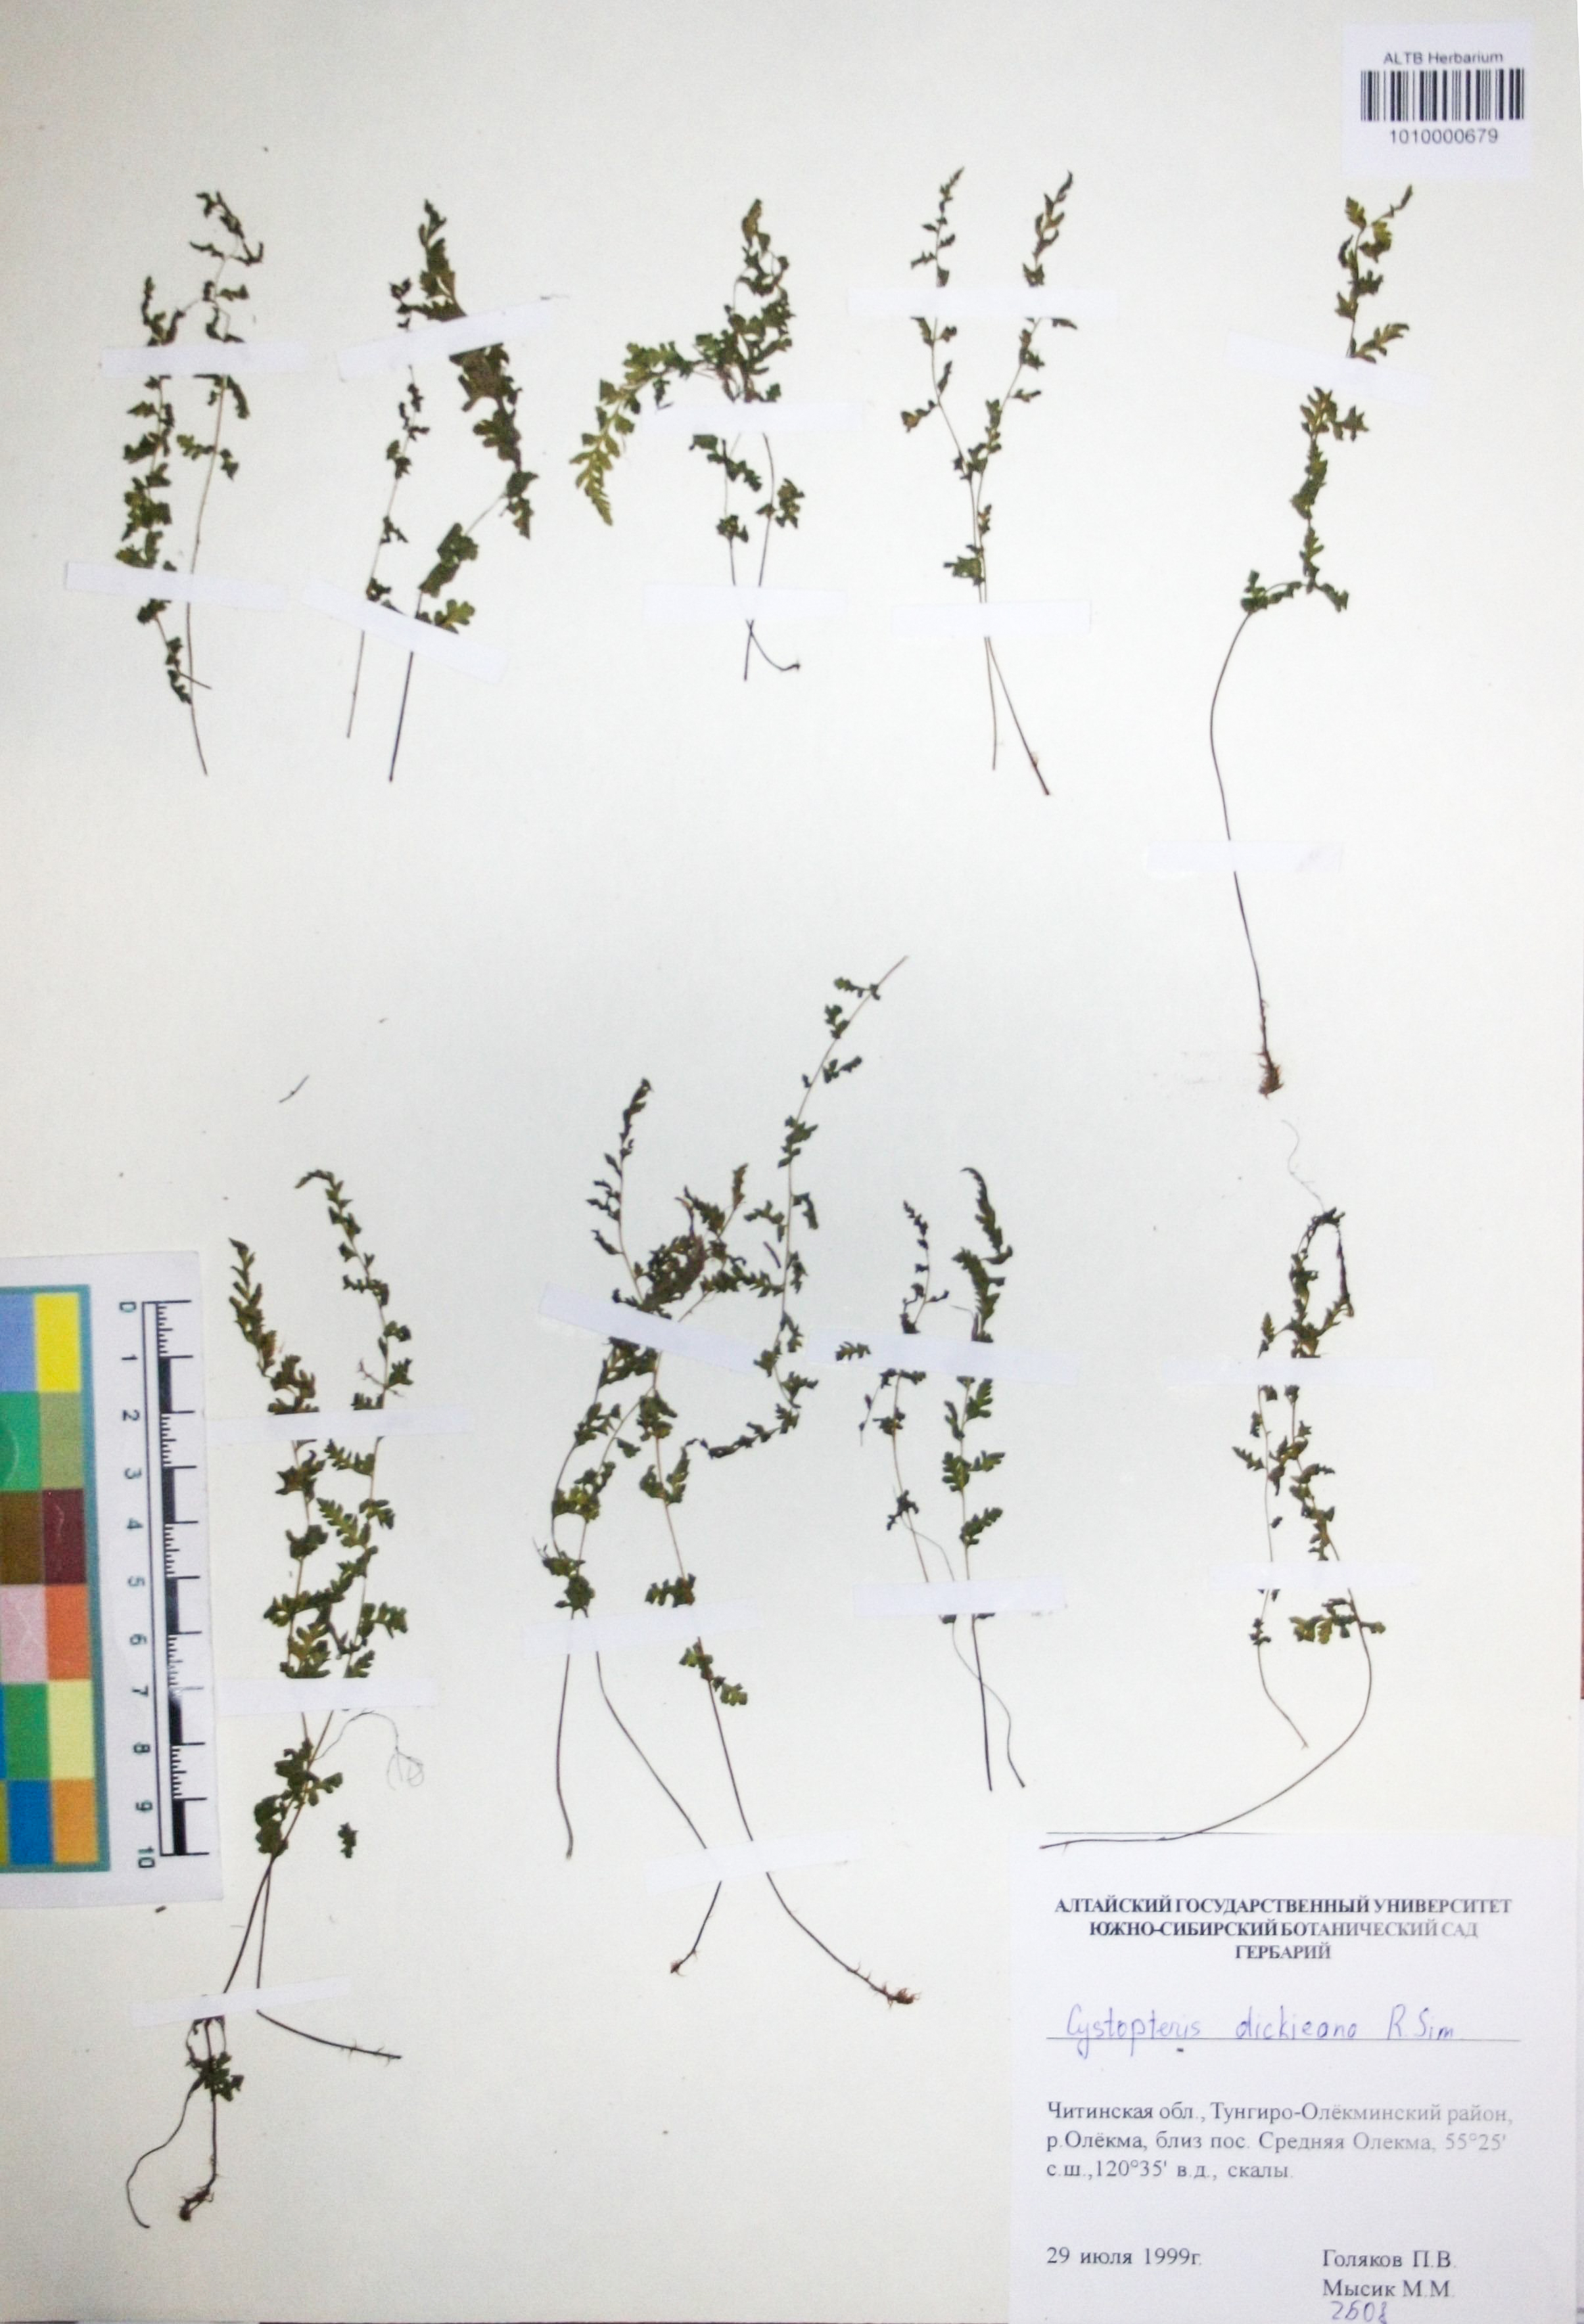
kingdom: Plantae
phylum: Tracheophyta
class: Polypodiopsida
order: Polypodiales
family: Cystopteridaceae
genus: Cystopteris
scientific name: Cystopteris dickieana
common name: Dickie's bladder-fern
